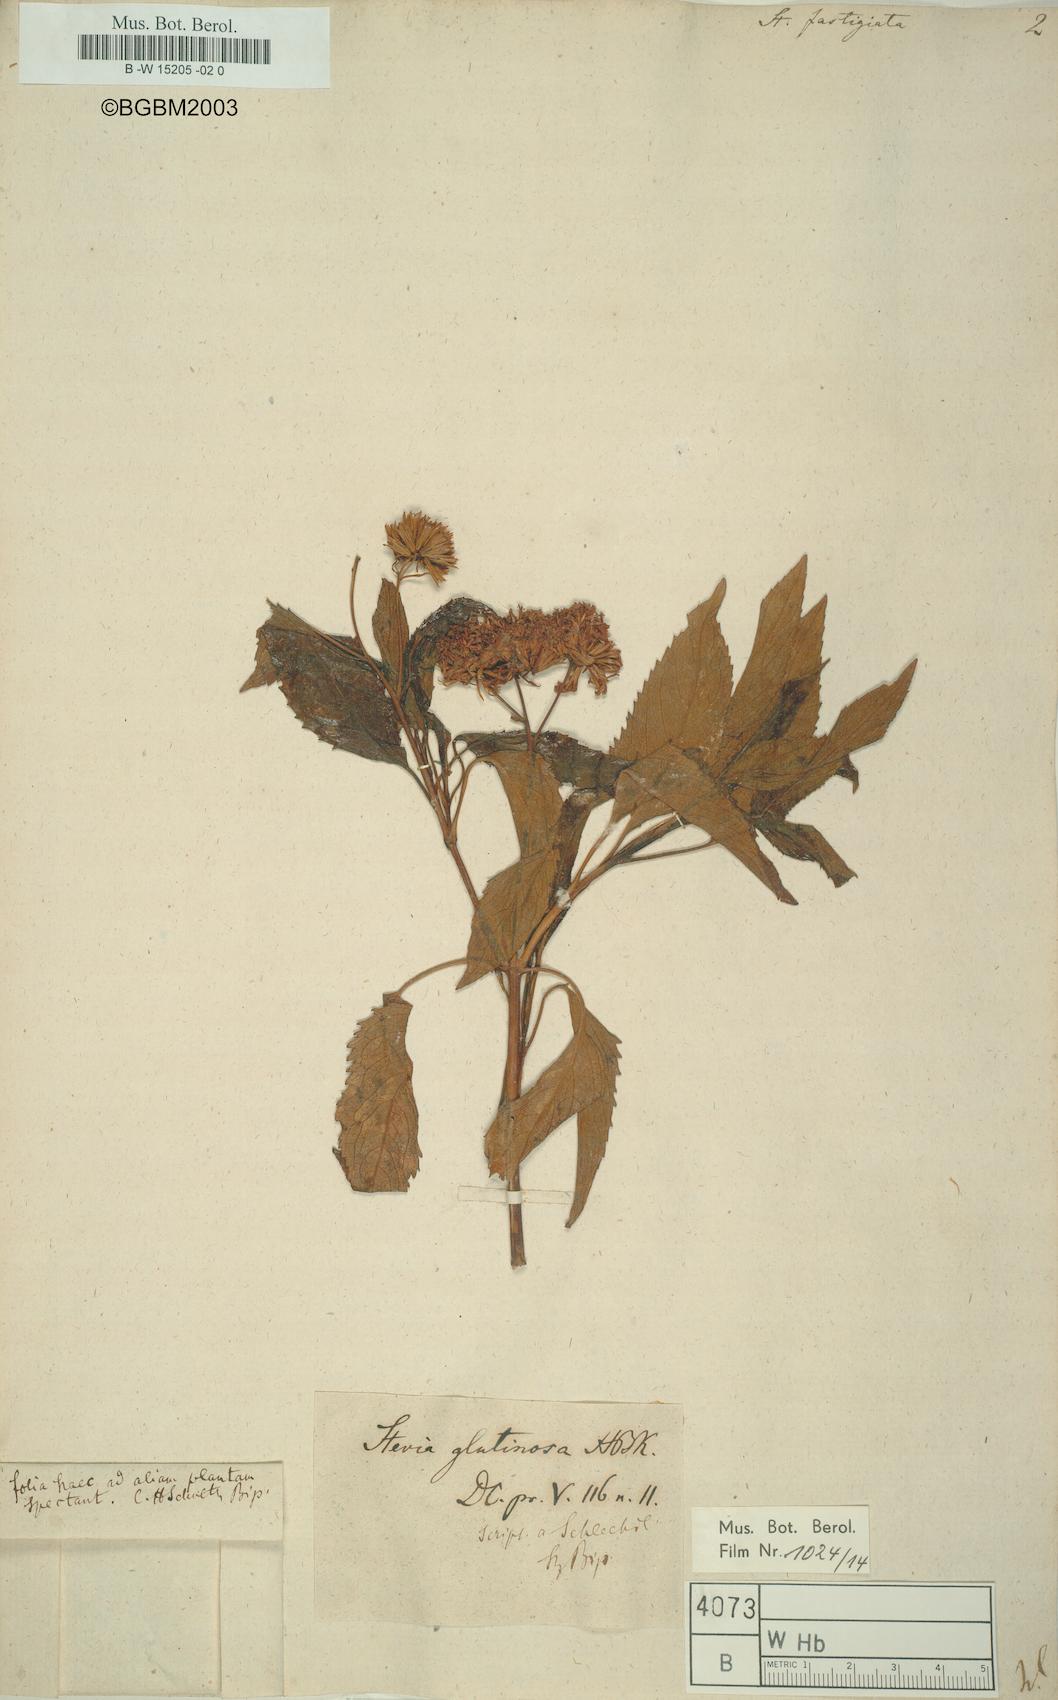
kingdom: Plantae
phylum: Tracheophyta
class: Magnoliopsida
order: Asterales
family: Asteraceae
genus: Stevia
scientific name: Stevia lucida
